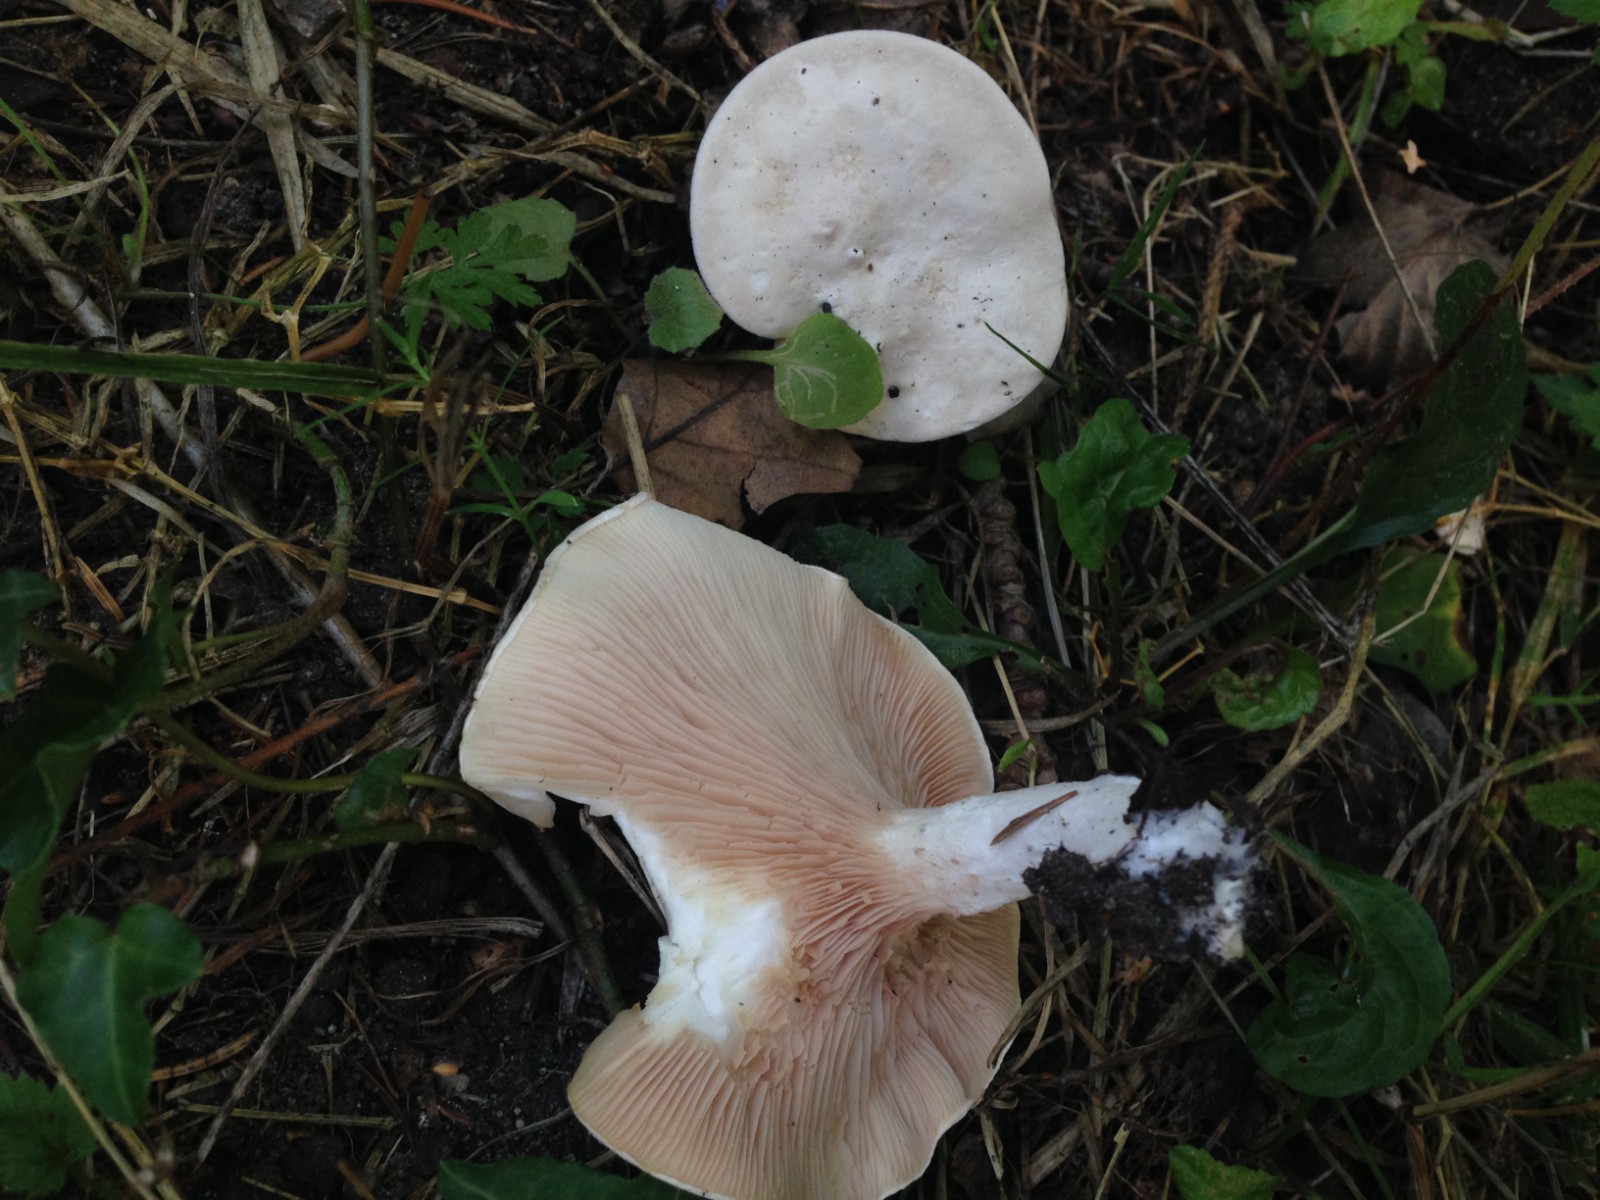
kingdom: Fungi
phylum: Basidiomycota
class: Agaricomycetes
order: Agaricales
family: Entolomataceae
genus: Clitopilus
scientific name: Clitopilus prunulus
